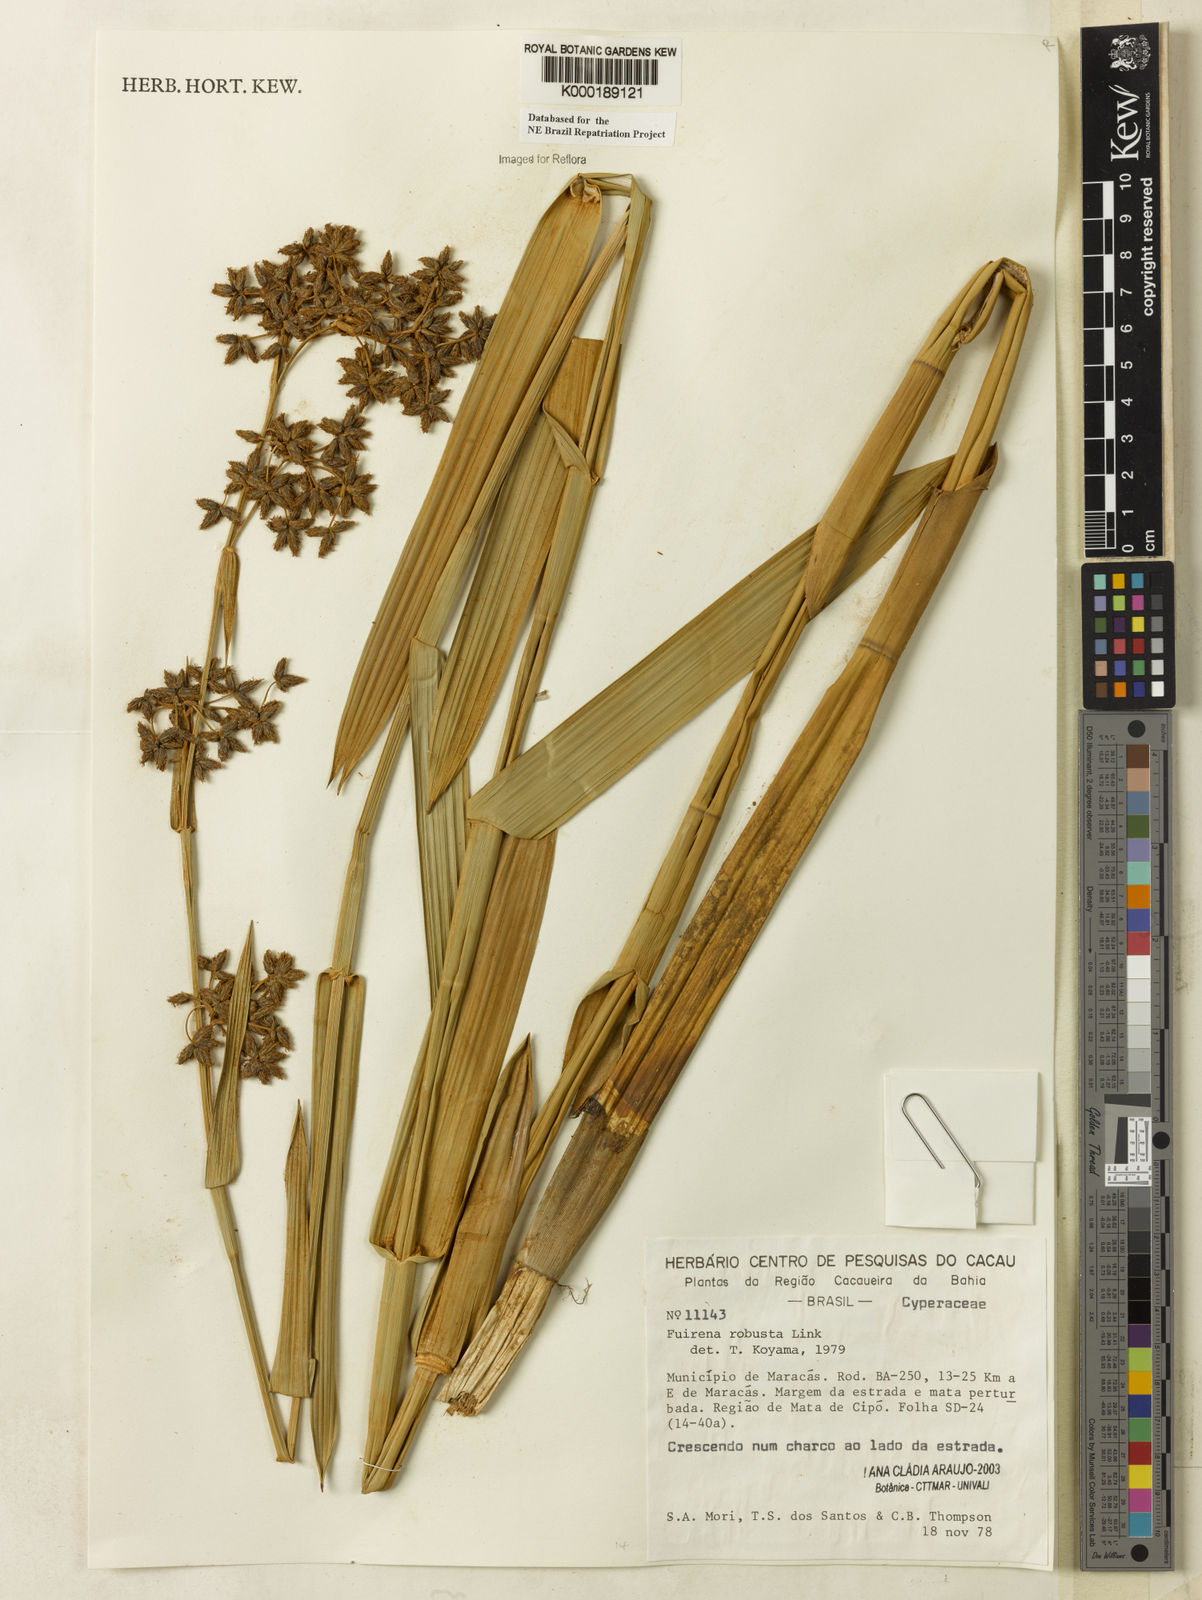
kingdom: Plantae
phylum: Tracheophyta
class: Liliopsida
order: Poales
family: Cyperaceae
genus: Fuirena
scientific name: Fuirena robusta
